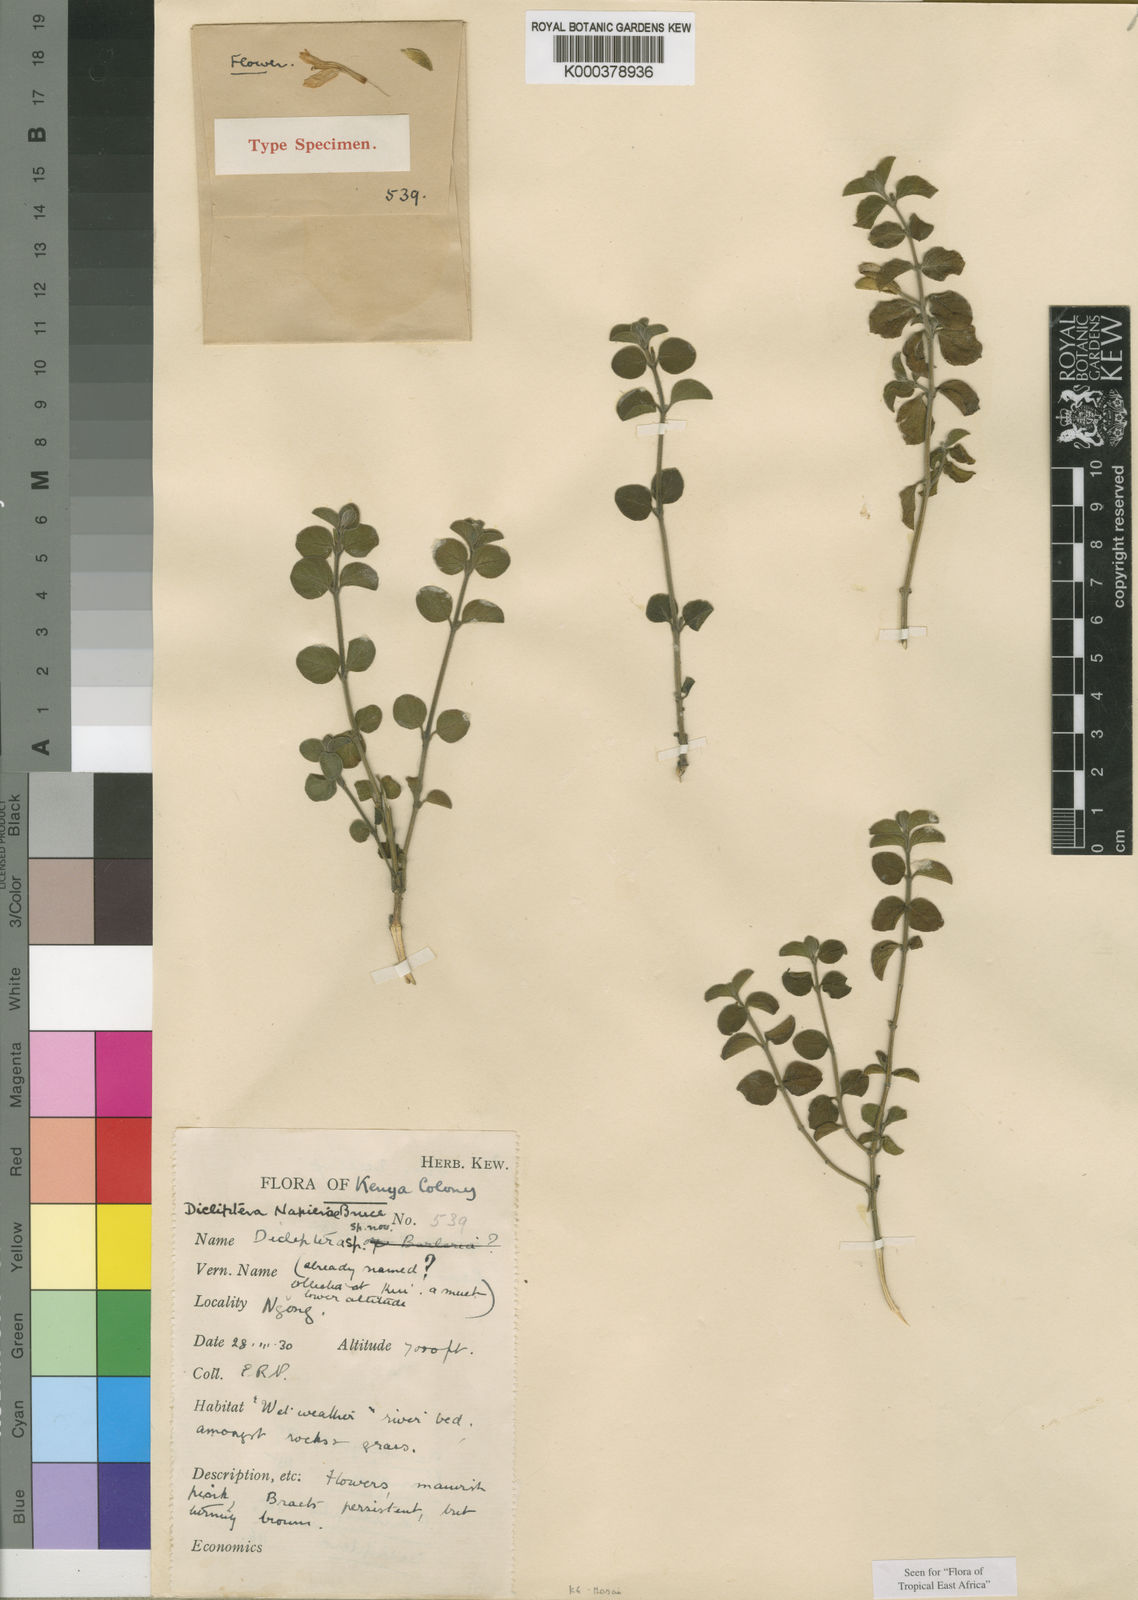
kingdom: Plantae
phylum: Tracheophyta
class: Magnoliopsida
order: Lamiales
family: Acanthaceae
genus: Dicliptera
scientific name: Dicliptera napierae
